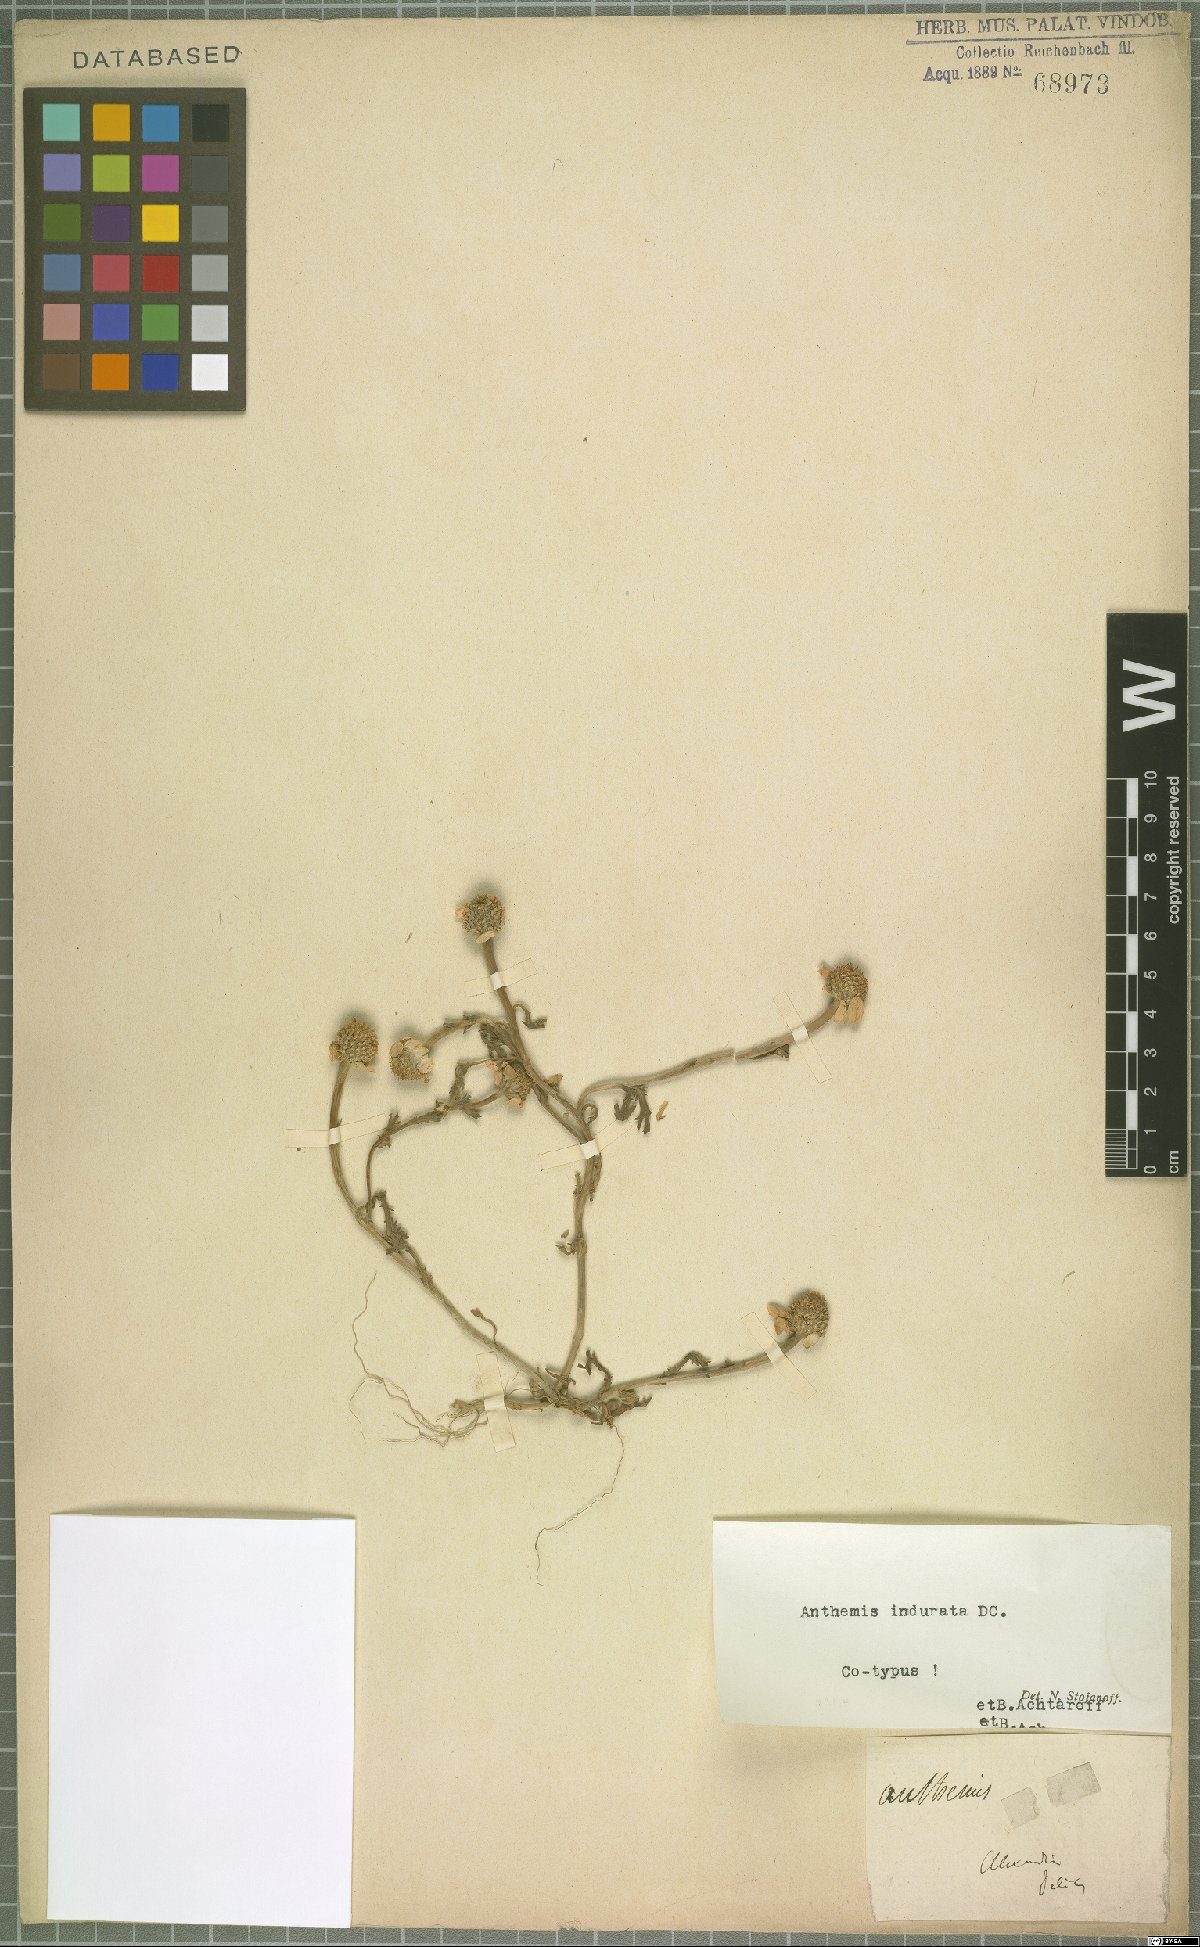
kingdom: Plantae
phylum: Tracheophyta
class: Magnoliopsida
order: Asterales
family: Asteraceae
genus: Anthemis
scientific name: Anthemis indurata
